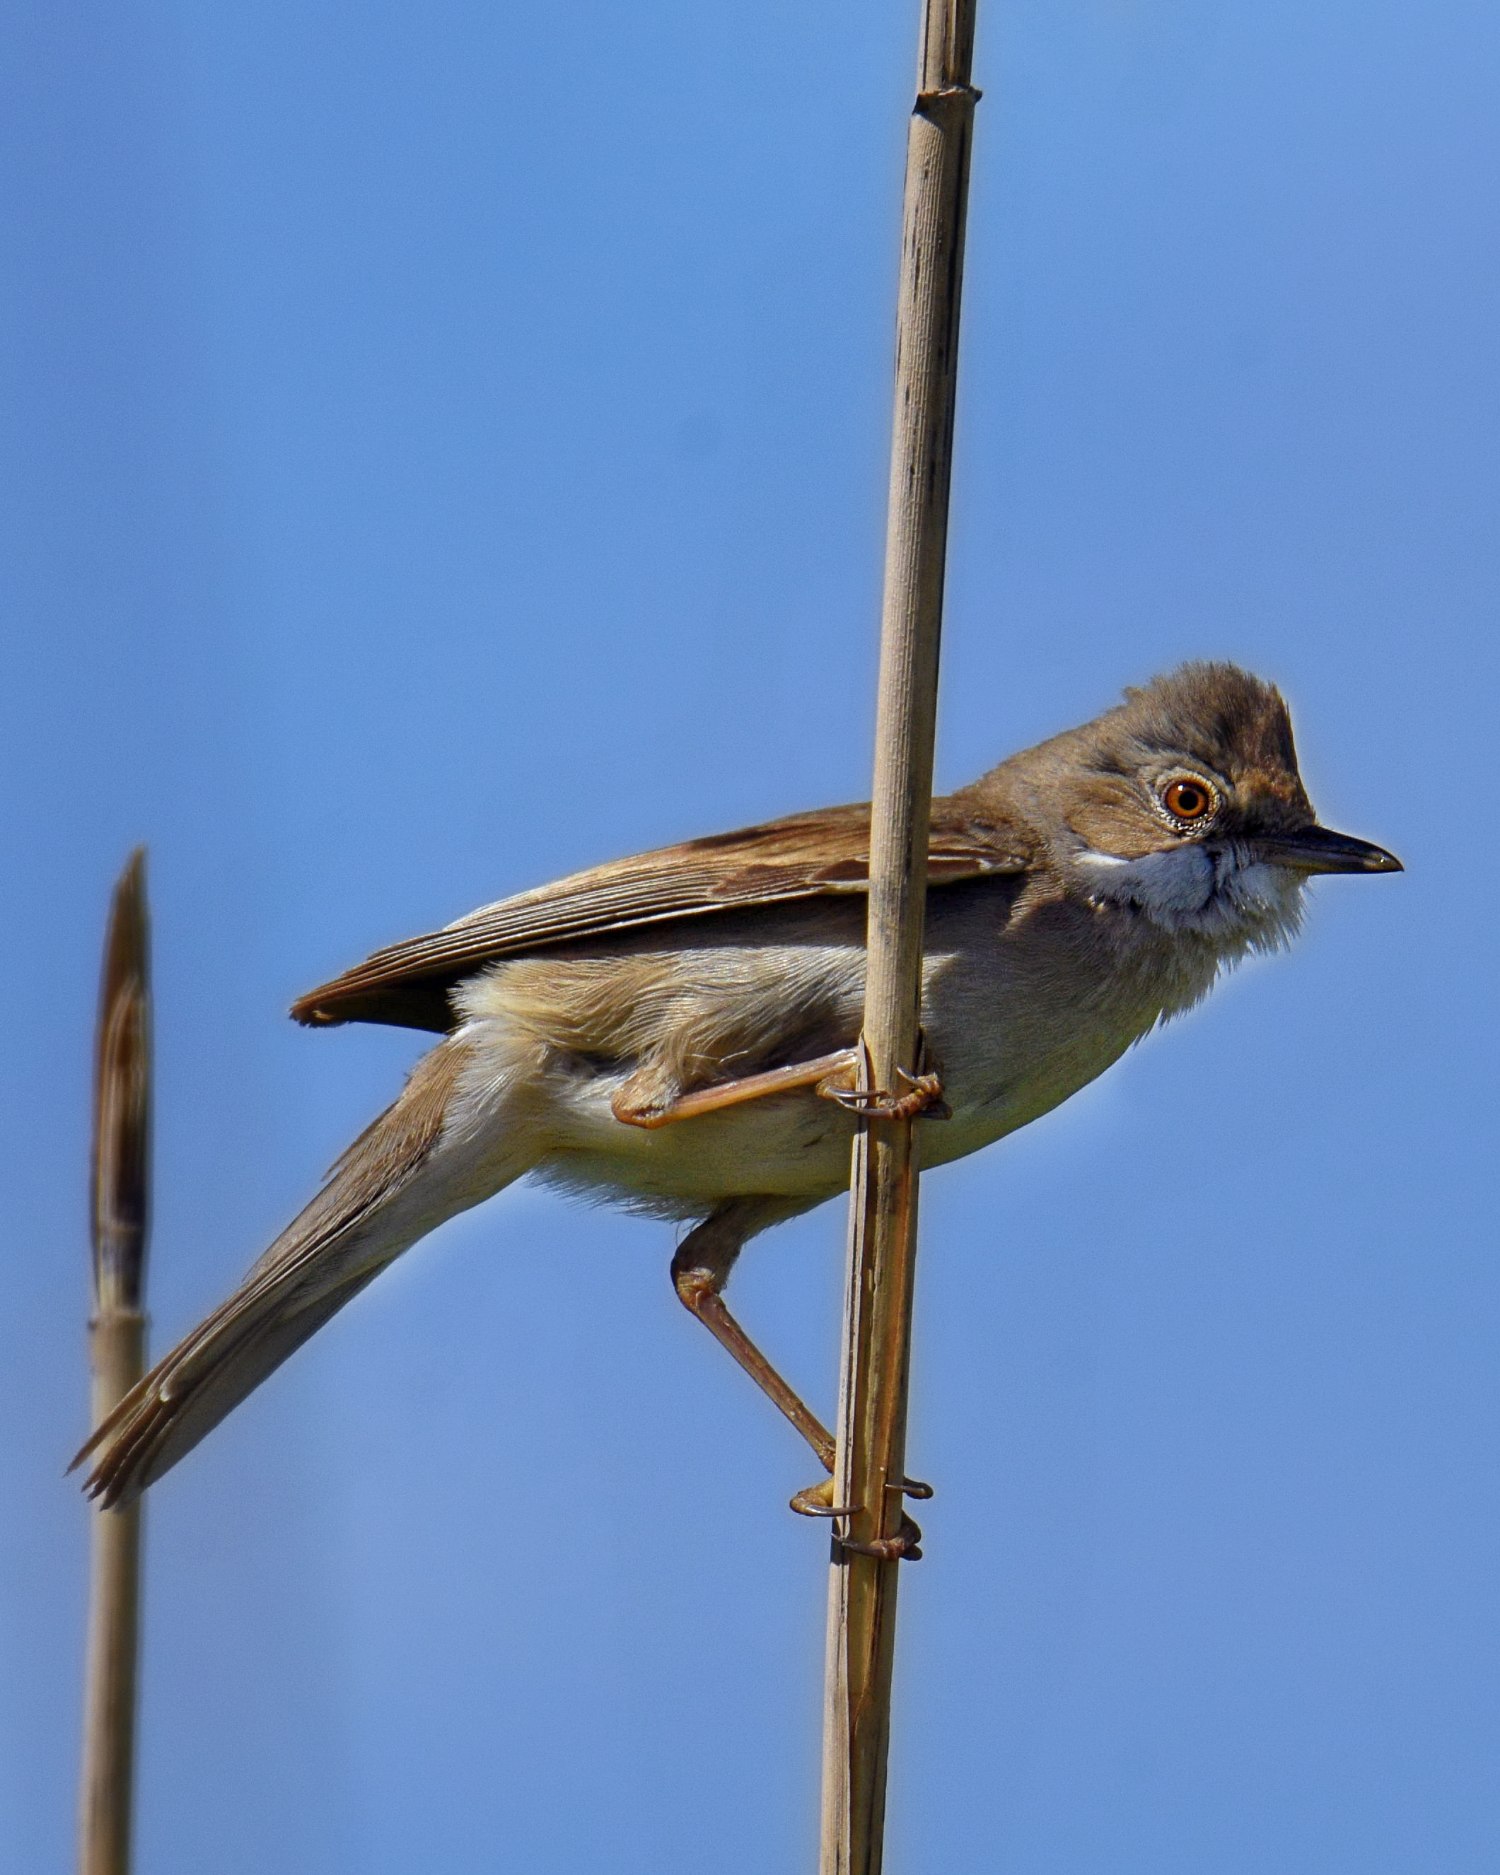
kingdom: Animalia
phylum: Chordata
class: Aves
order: Passeriformes
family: Sylviidae
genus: Sylvia
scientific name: Sylvia communis
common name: Tornsanger
